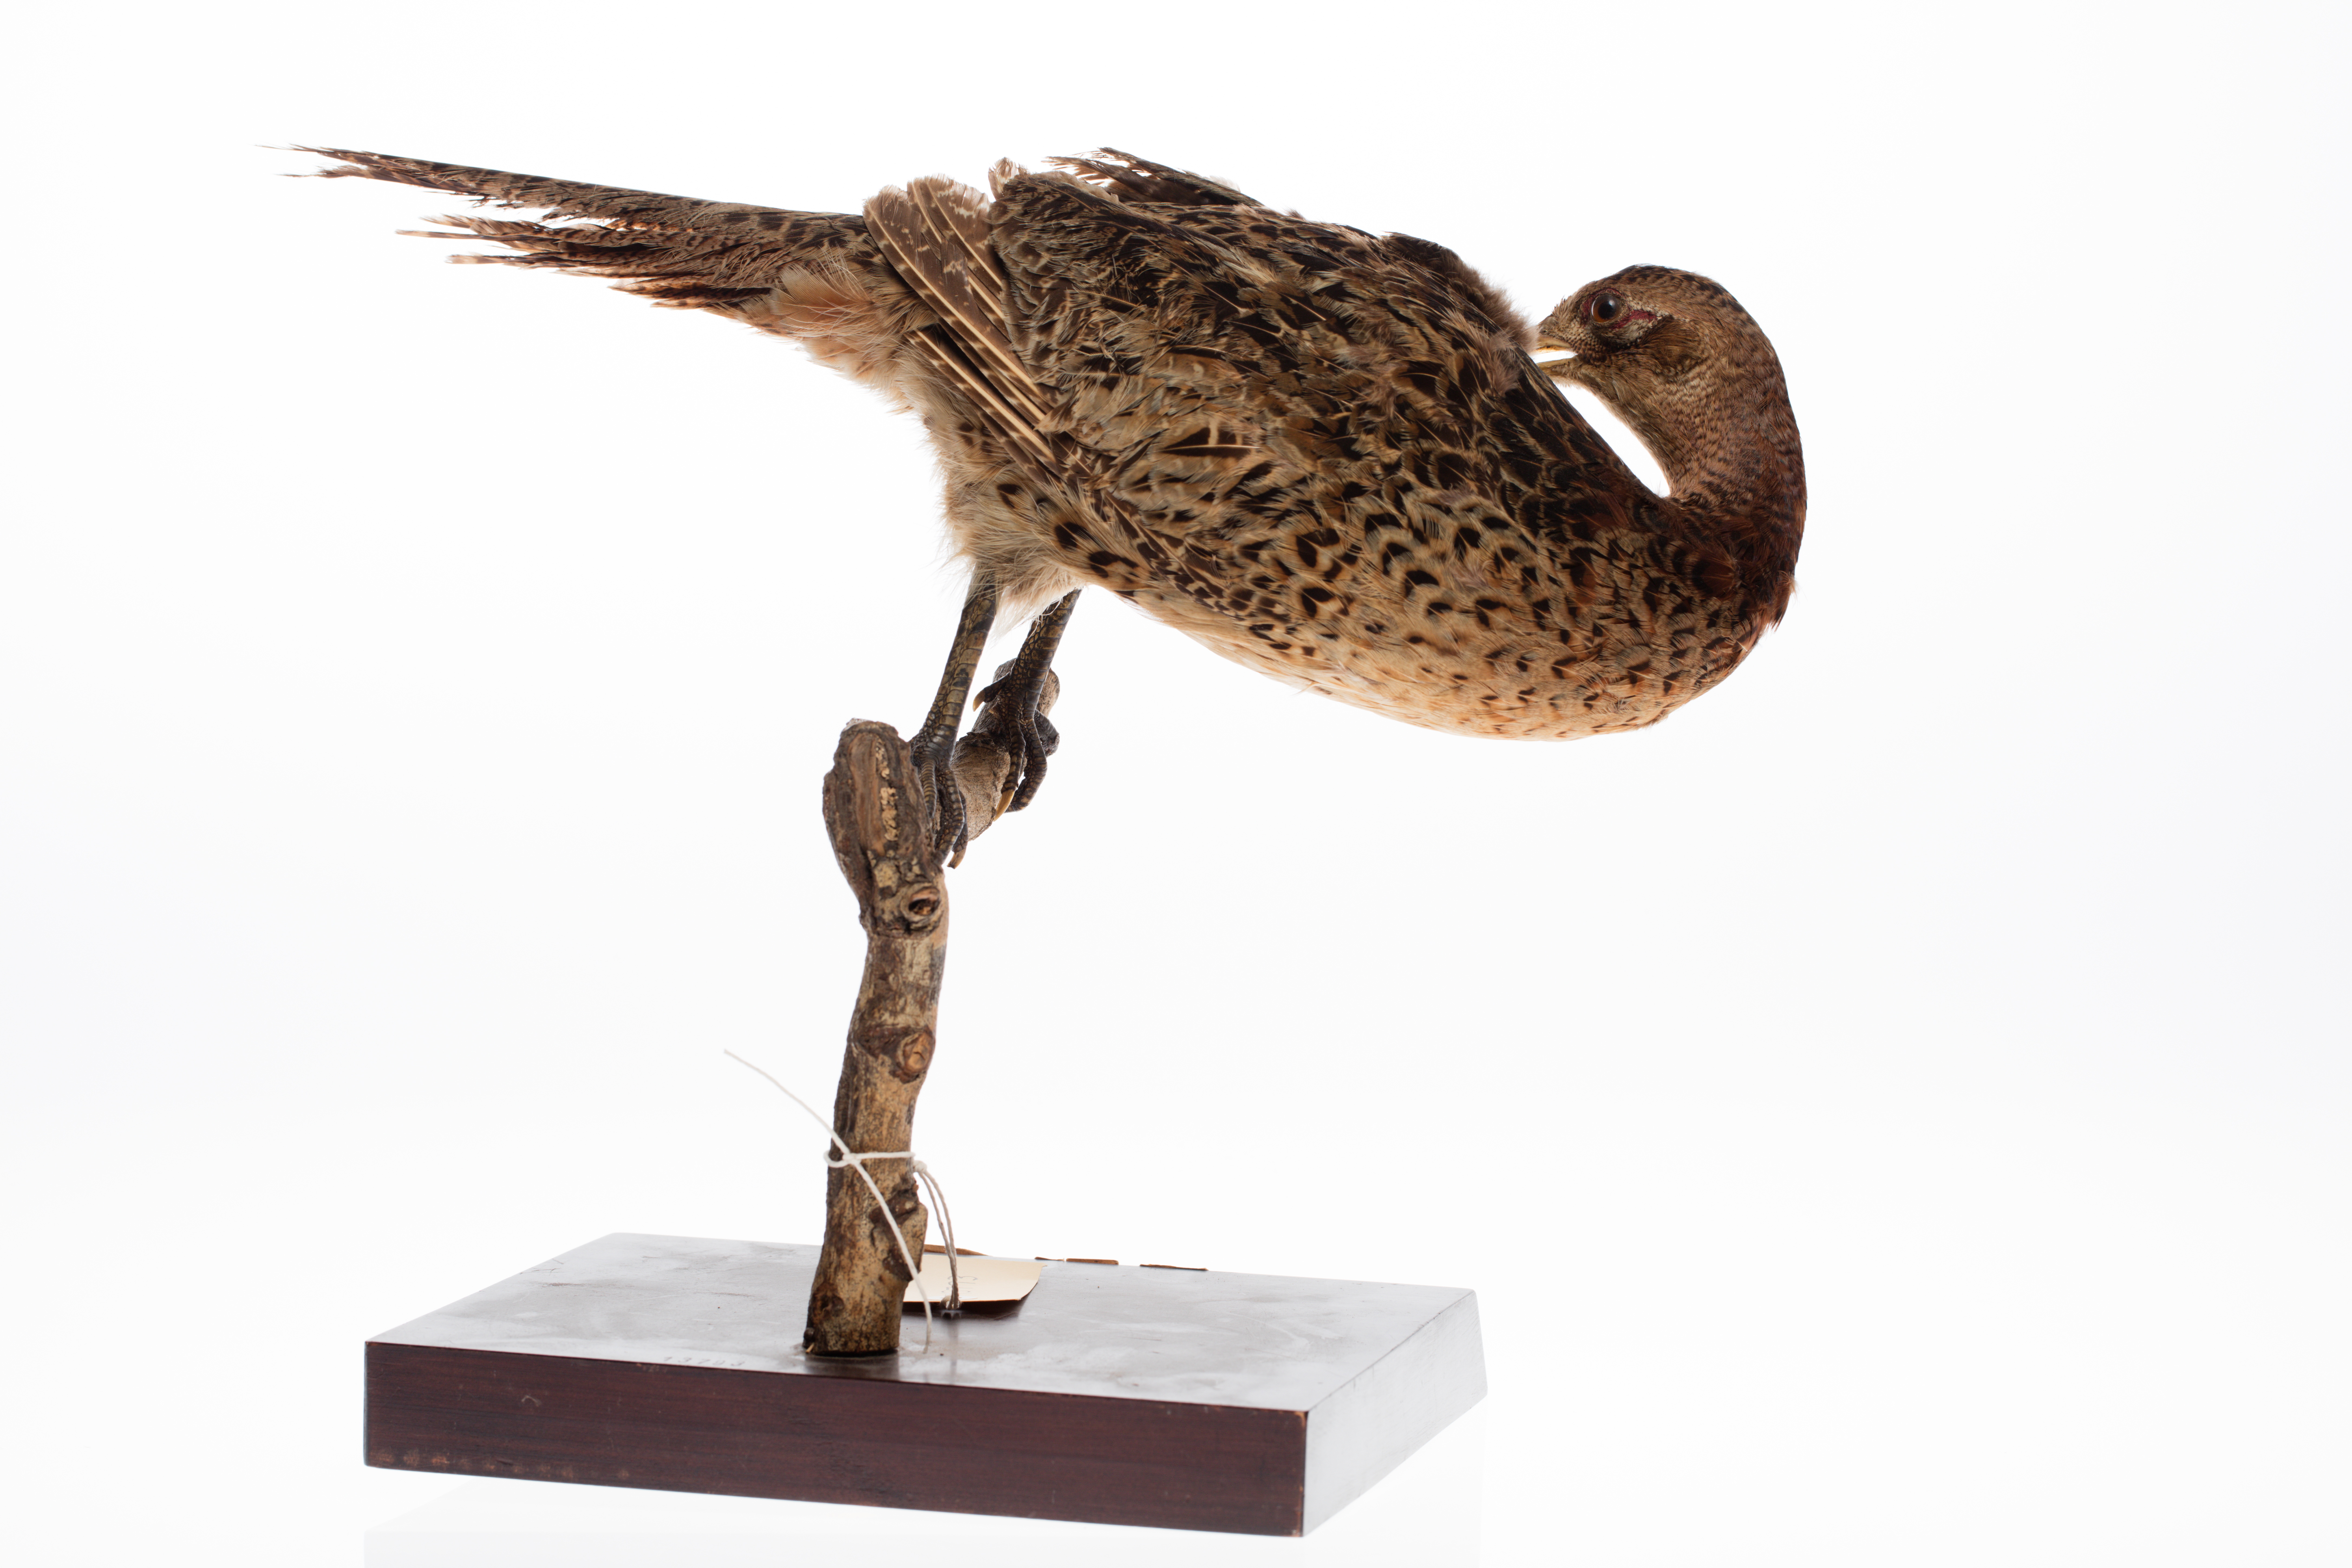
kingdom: Animalia
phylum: Chordata
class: Aves
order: Galliformes
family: Phasianidae
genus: Phasianus
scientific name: Phasianus colchicus
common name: Common pheasant
